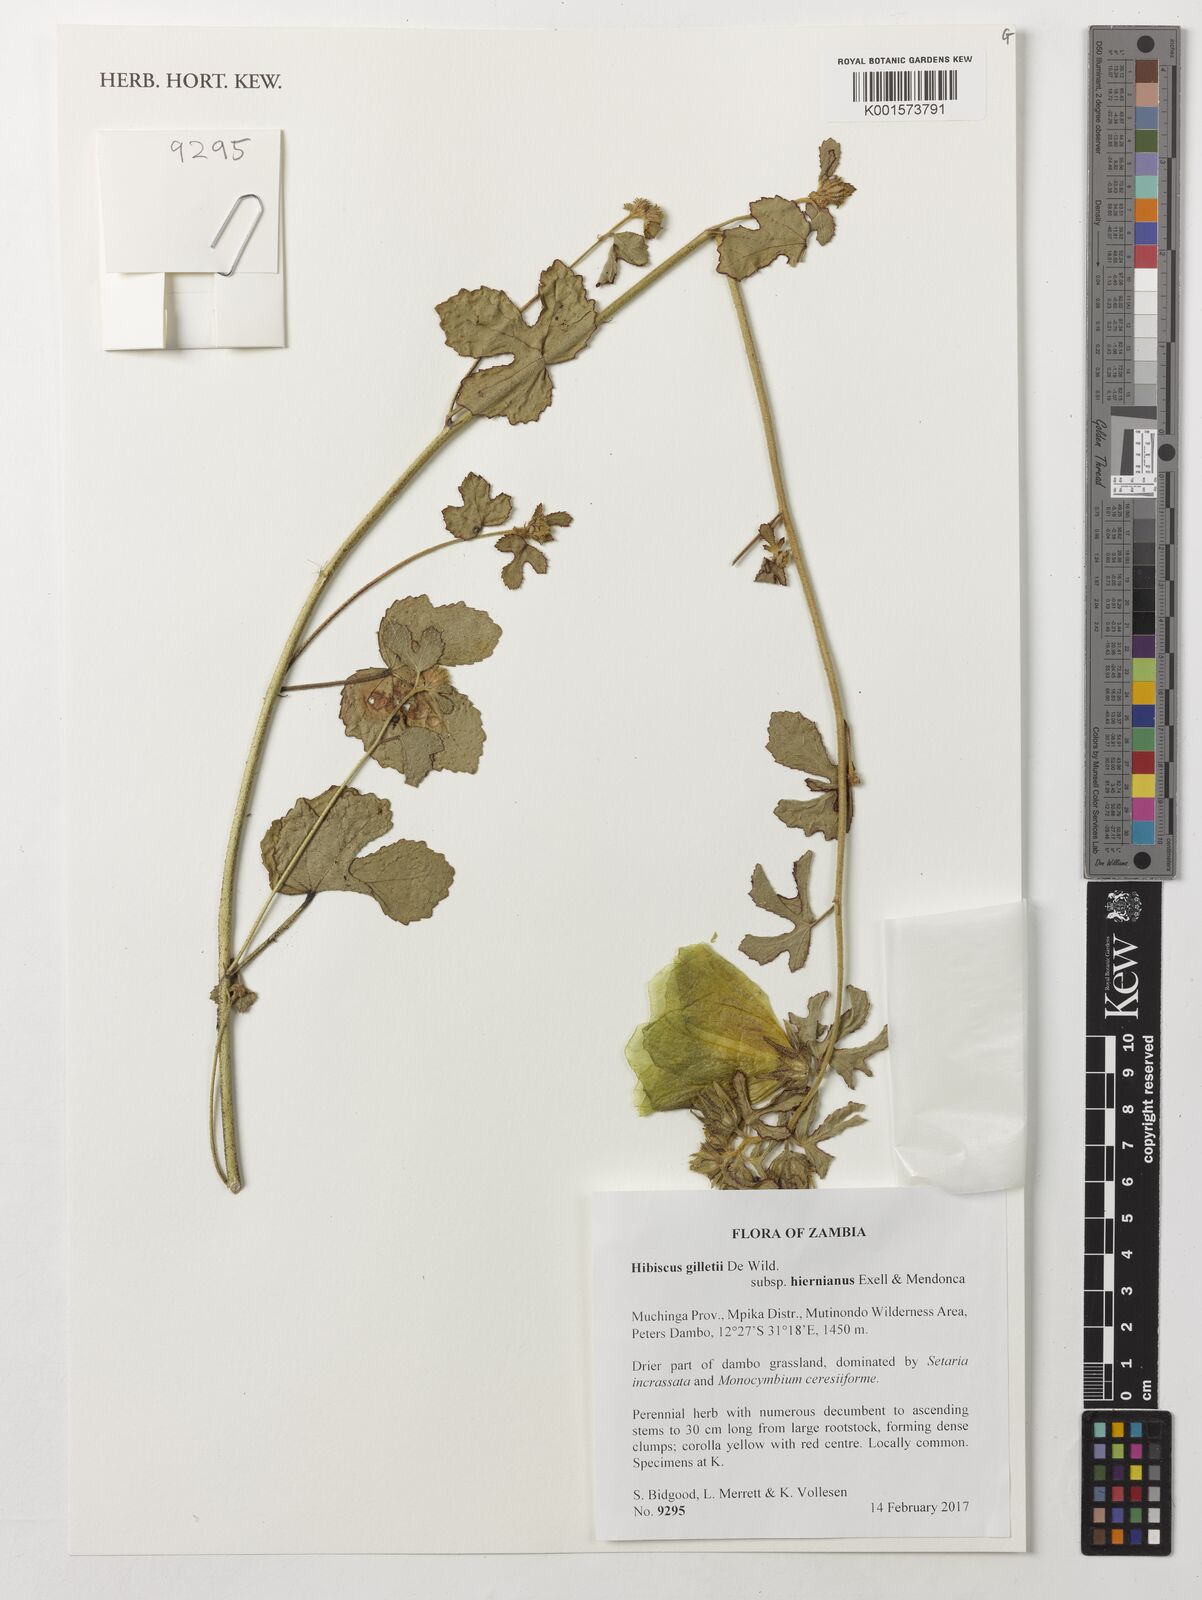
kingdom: Plantae
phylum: Tracheophyta
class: Magnoliopsida
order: Malvales
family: Malvaceae
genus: Hibiscus
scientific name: Hibiscus gilletii
